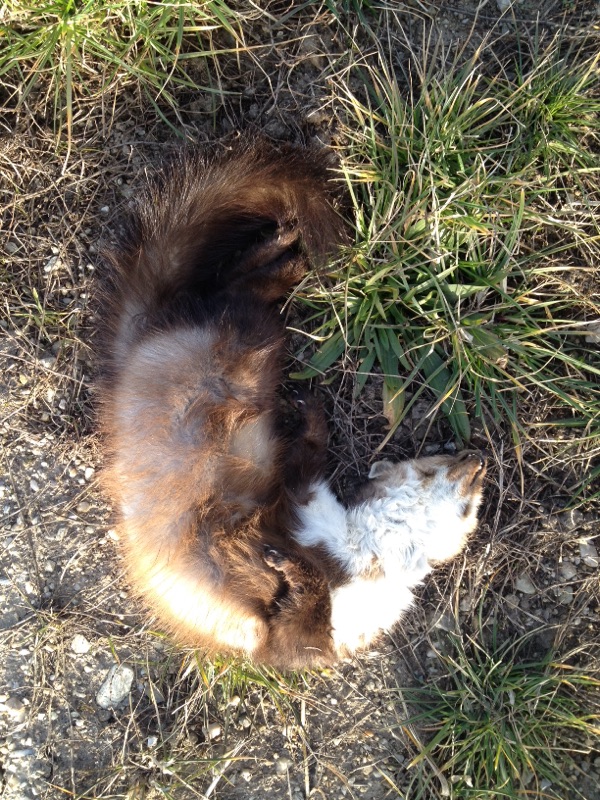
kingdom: Animalia
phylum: Chordata
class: Mammalia
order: Carnivora
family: Mustelidae
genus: Martes
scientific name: Martes foina
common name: Beech marten
